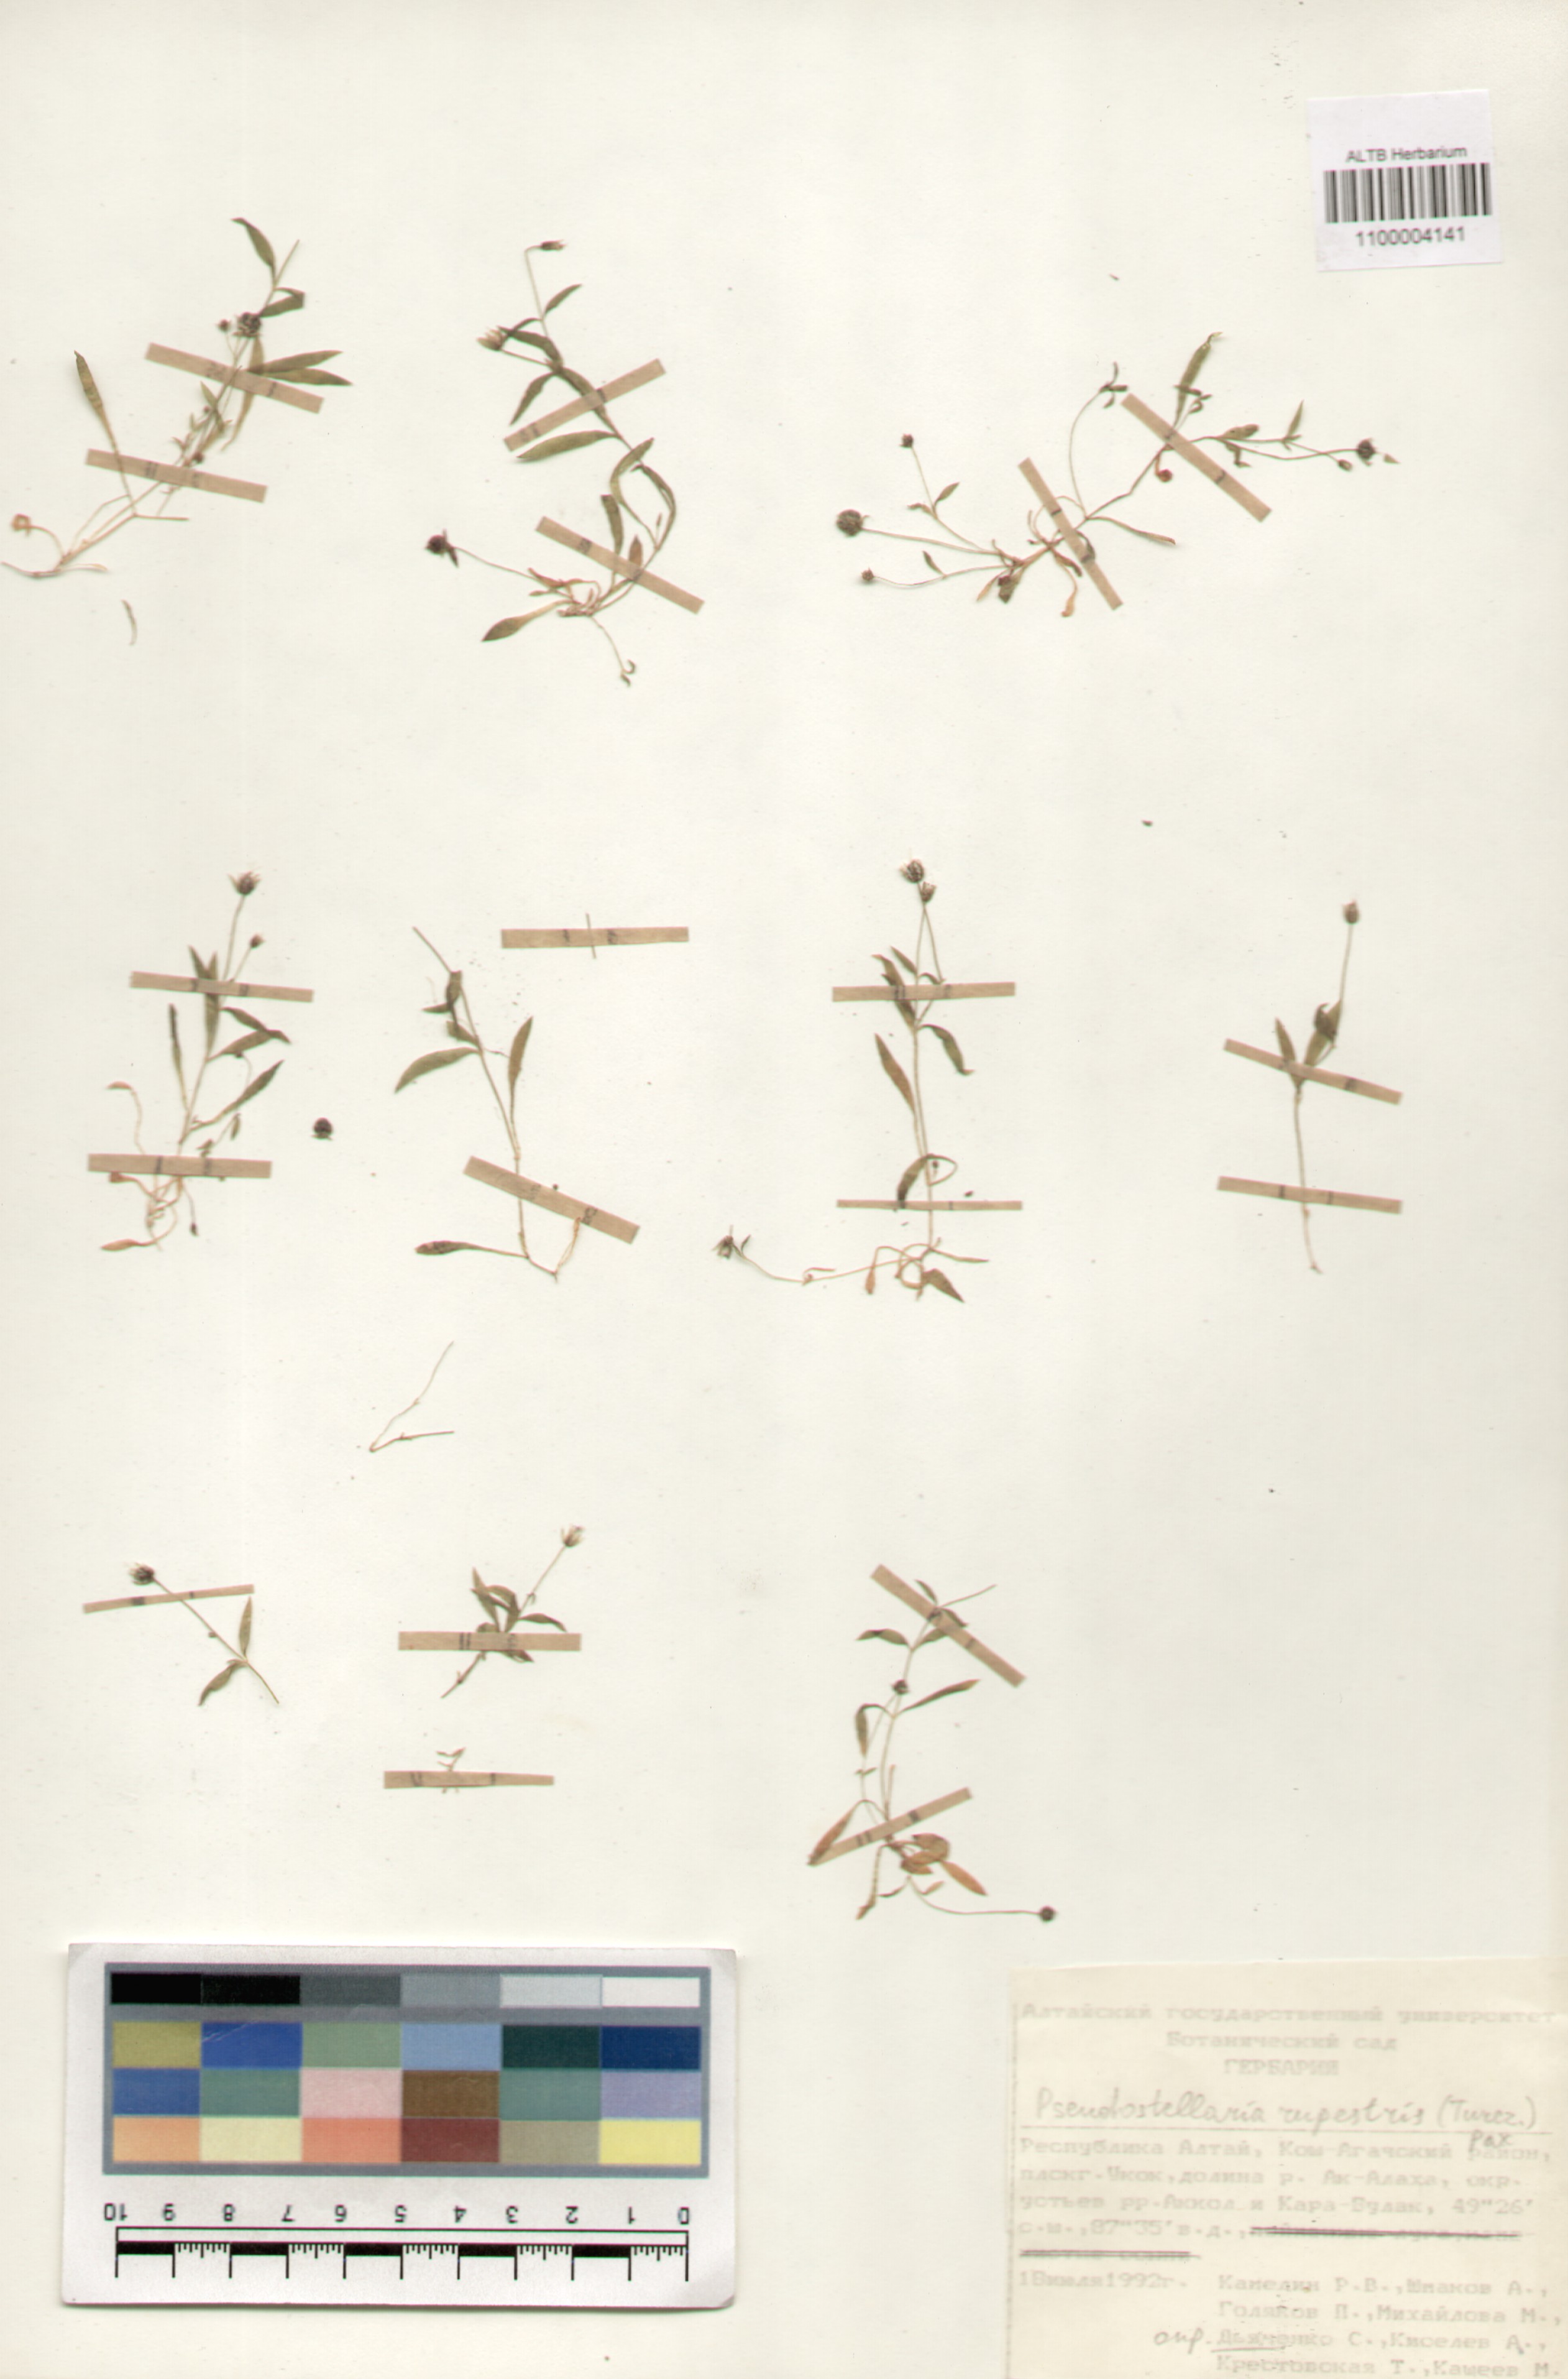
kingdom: Plantae
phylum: Tracheophyta
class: Magnoliopsida
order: Caryophyllales
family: Caryophyllaceae
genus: Pseudostellaria
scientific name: Pseudostellaria sylvatica
